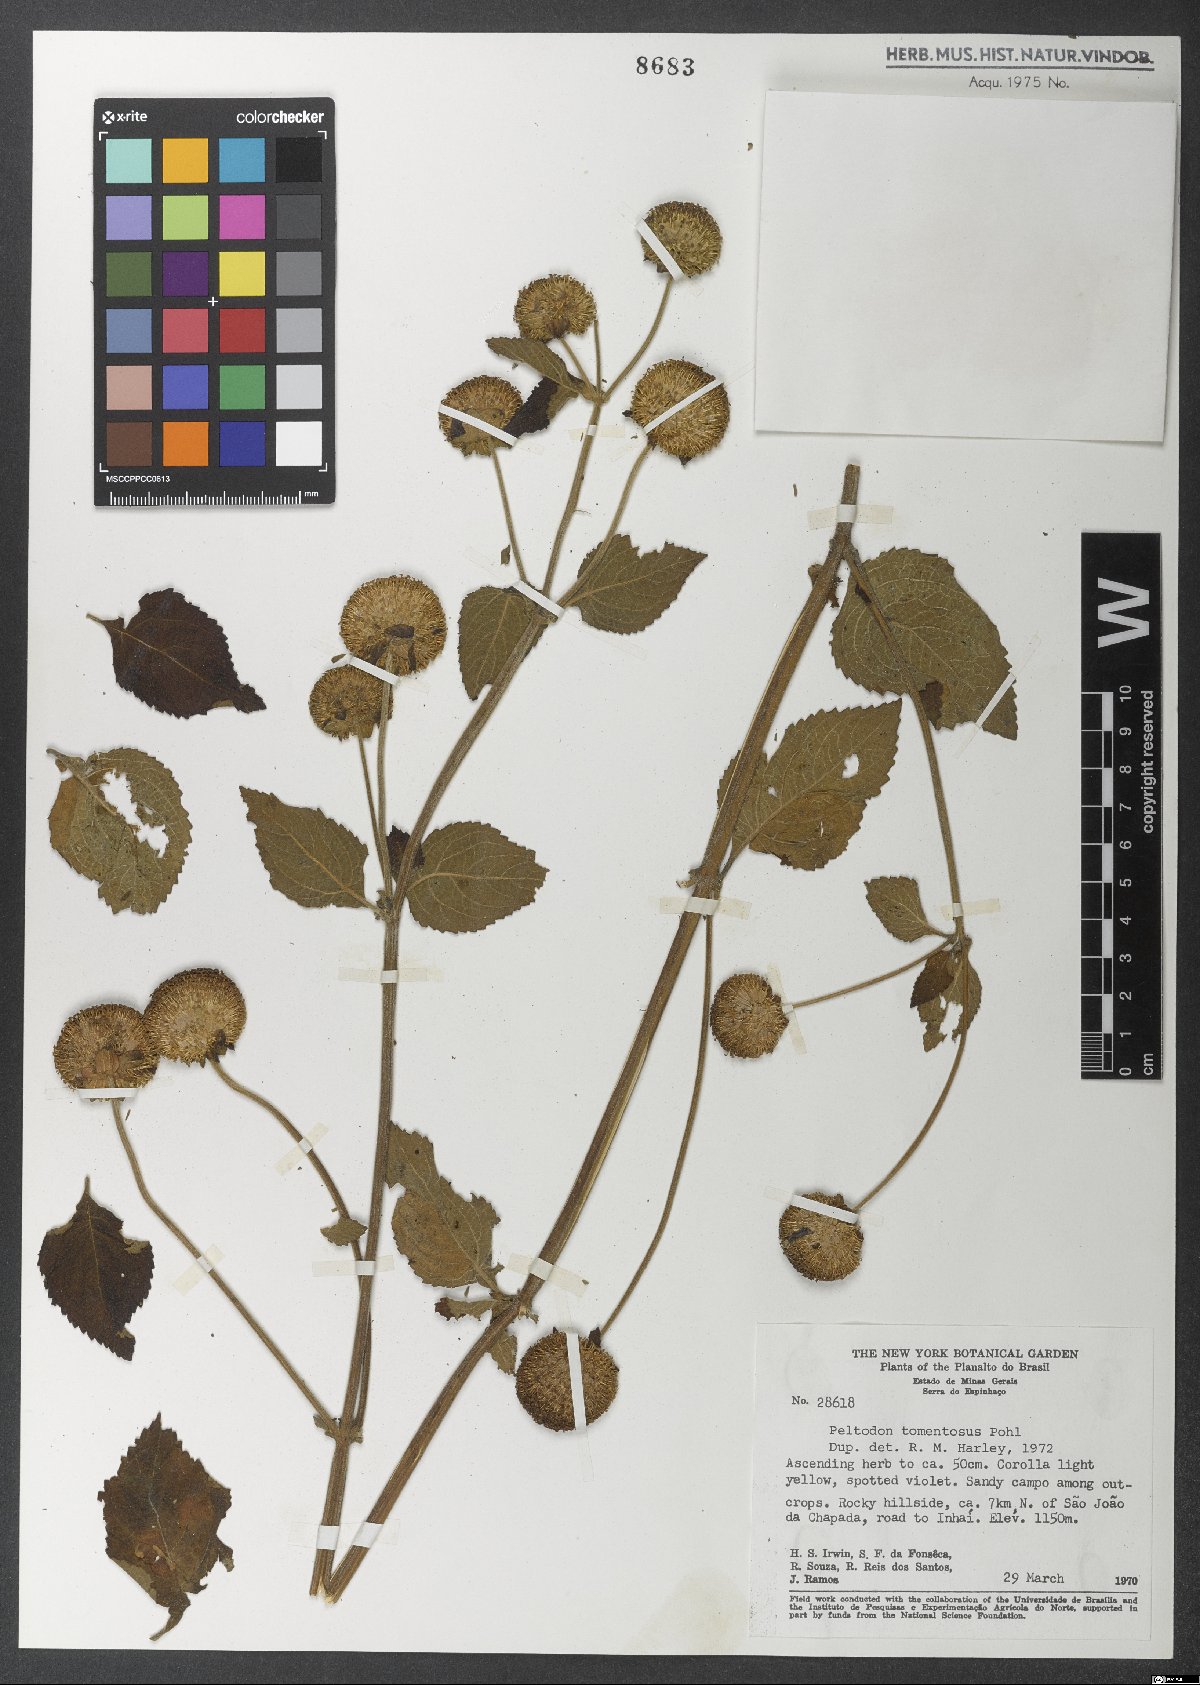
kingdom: Plantae
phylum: Tracheophyta
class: Magnoliopsida
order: Lamiales
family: Lamiaceae
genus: Hyptis
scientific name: Hyptis campestris
